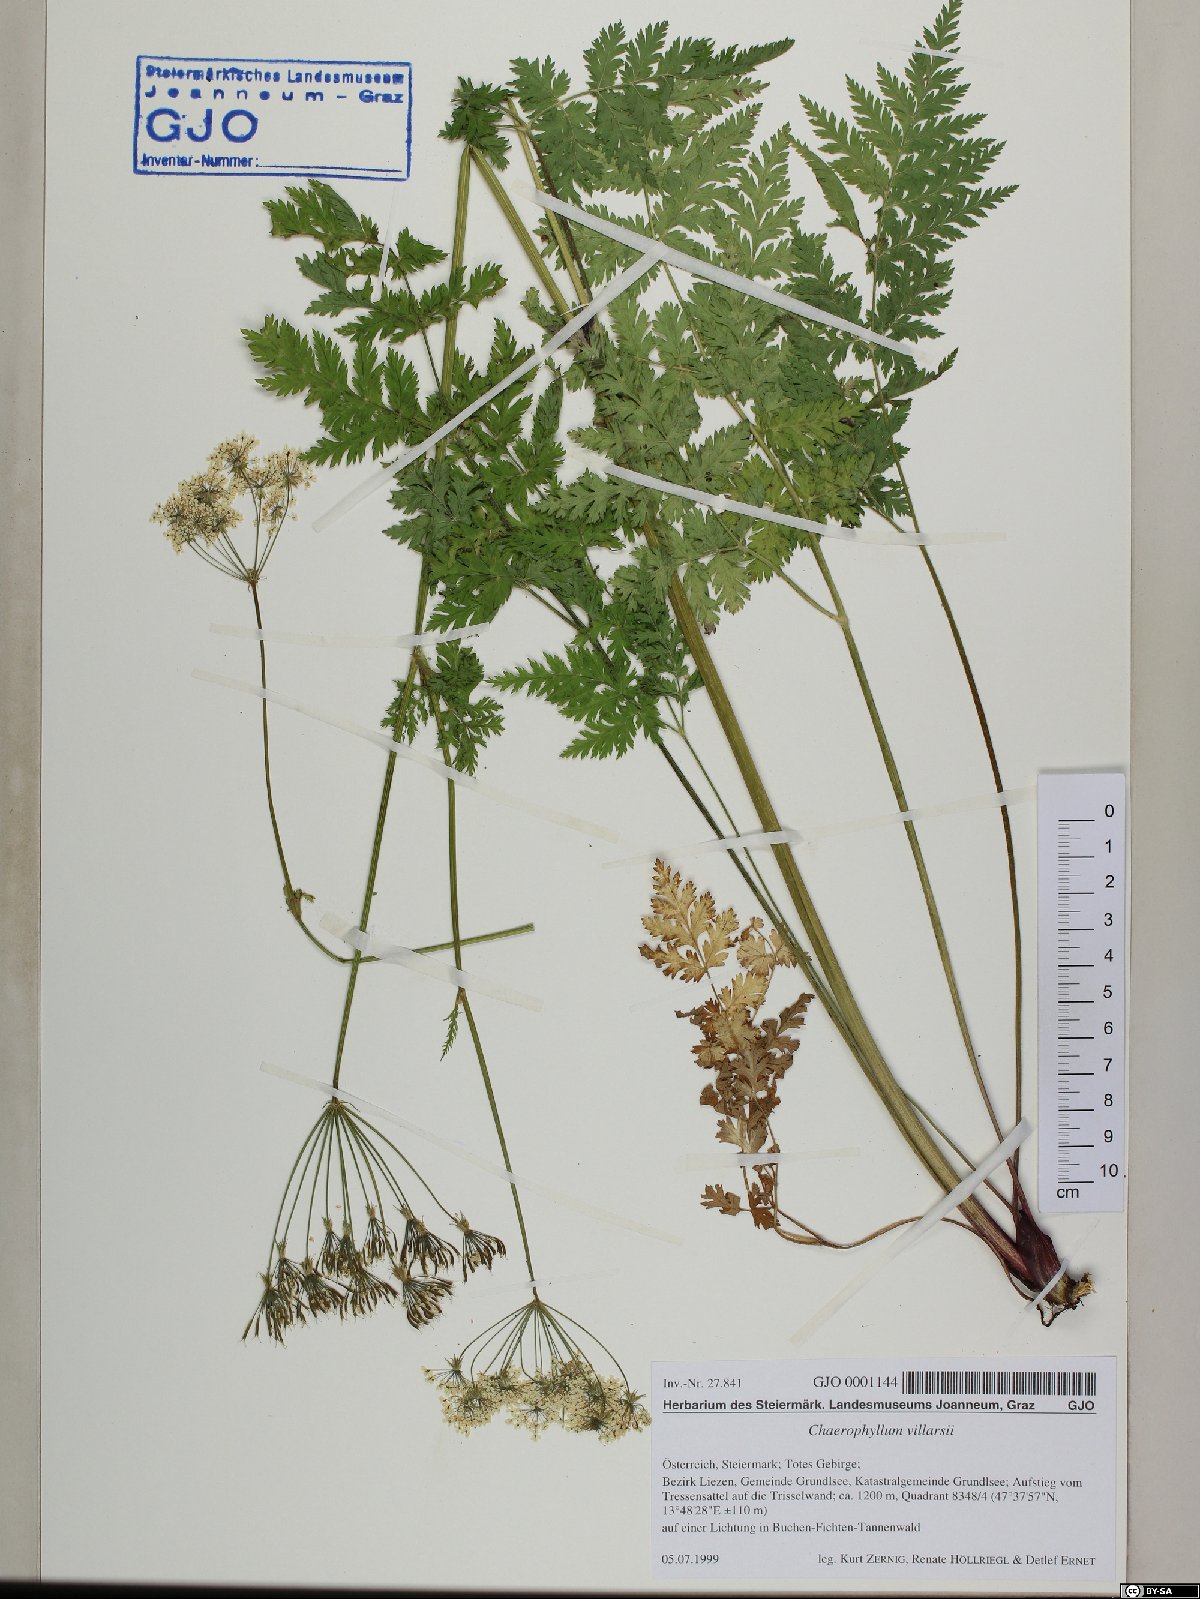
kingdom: Plantae
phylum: Tracheophyta
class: Magnoliopsida
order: Apiales
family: Apiaceae
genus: Chaerophyllum
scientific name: Chaerophyllum villarsii
